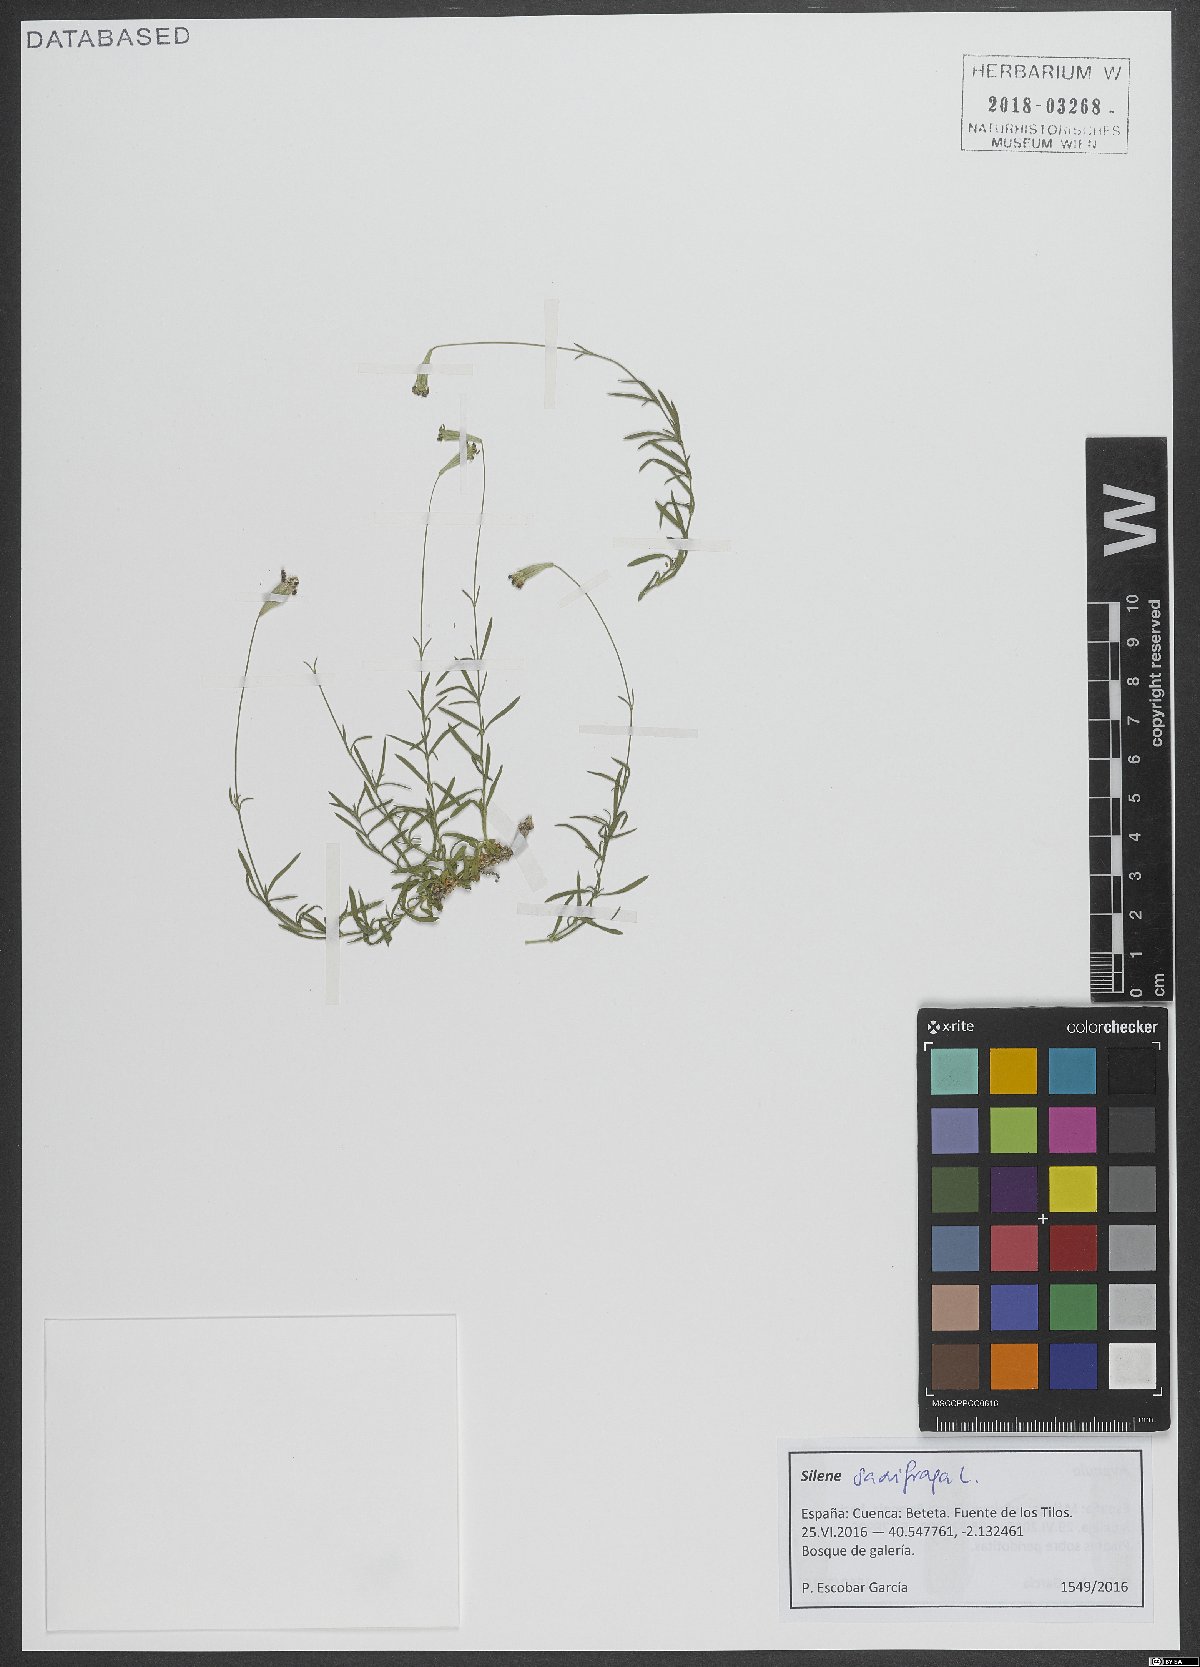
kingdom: Plantae
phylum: Tracheophyta
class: Magnoliopsida
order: Caryophyllales
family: Caryophyllaceae
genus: Silene
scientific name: Silene saxifraga
